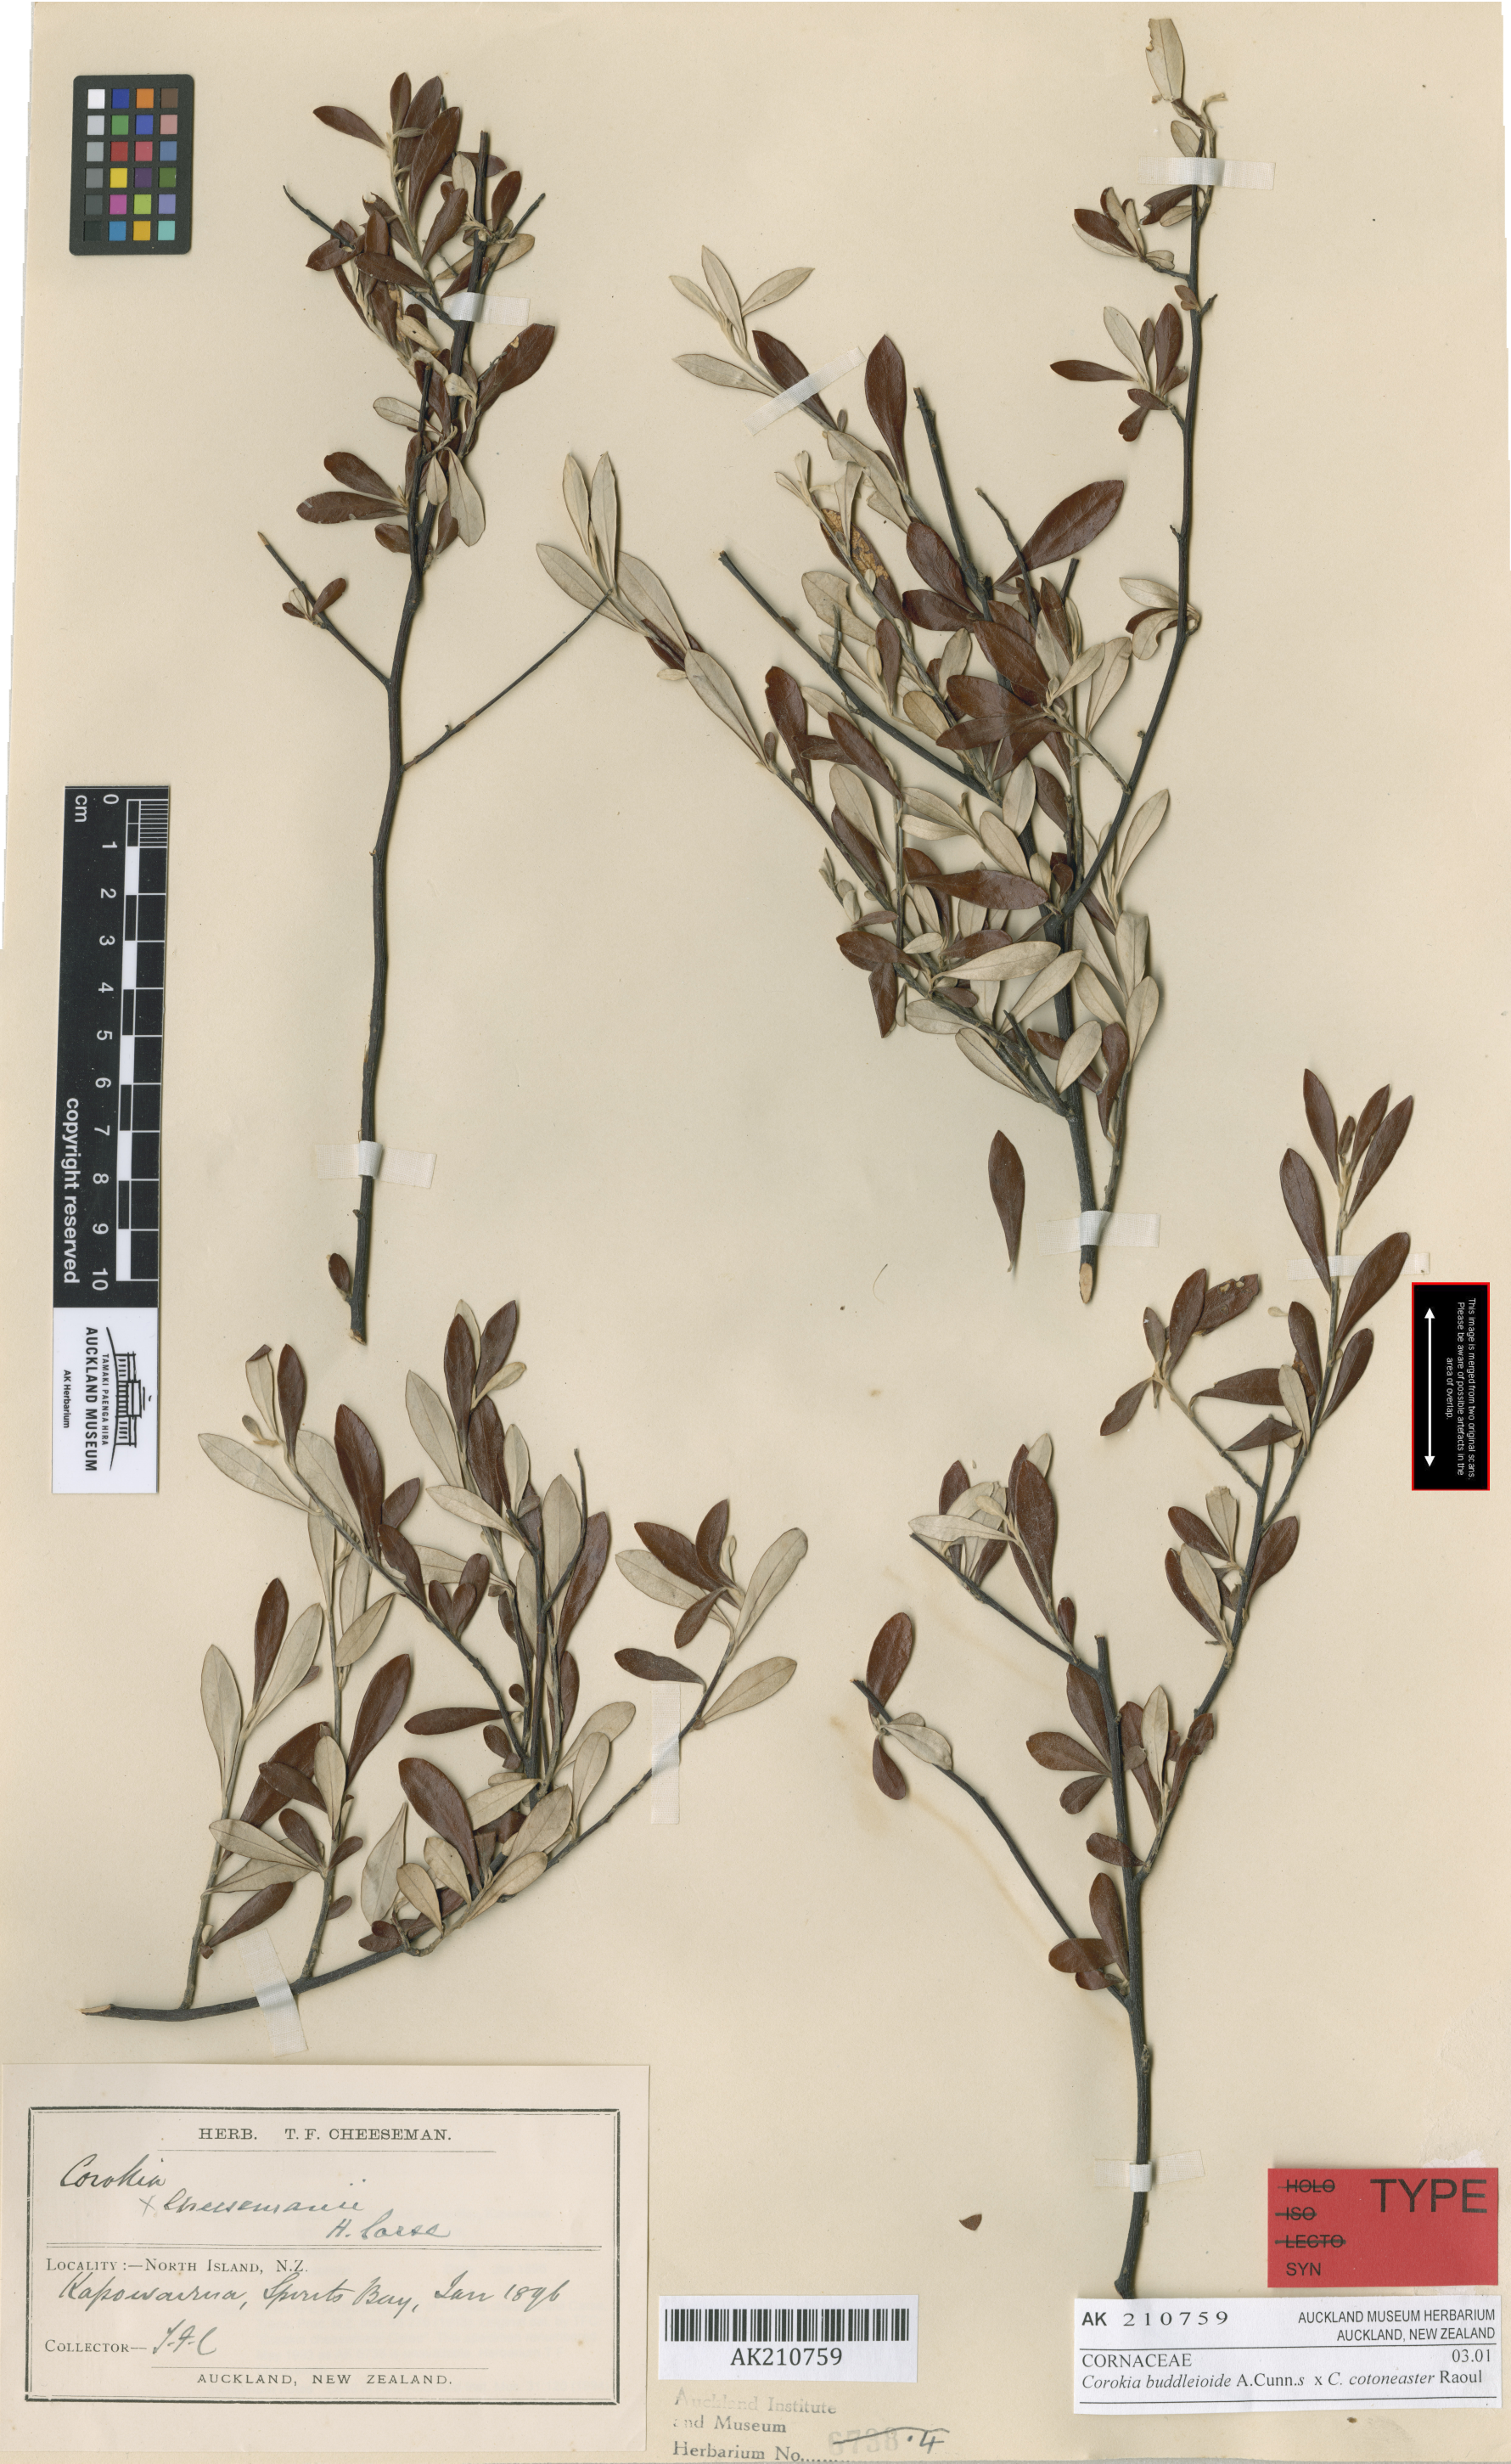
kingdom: Plantae
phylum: Tracheophyta
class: Magnoliopsida
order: Asterales
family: Argophyllaceae
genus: Corokia
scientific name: Corokia virgata
